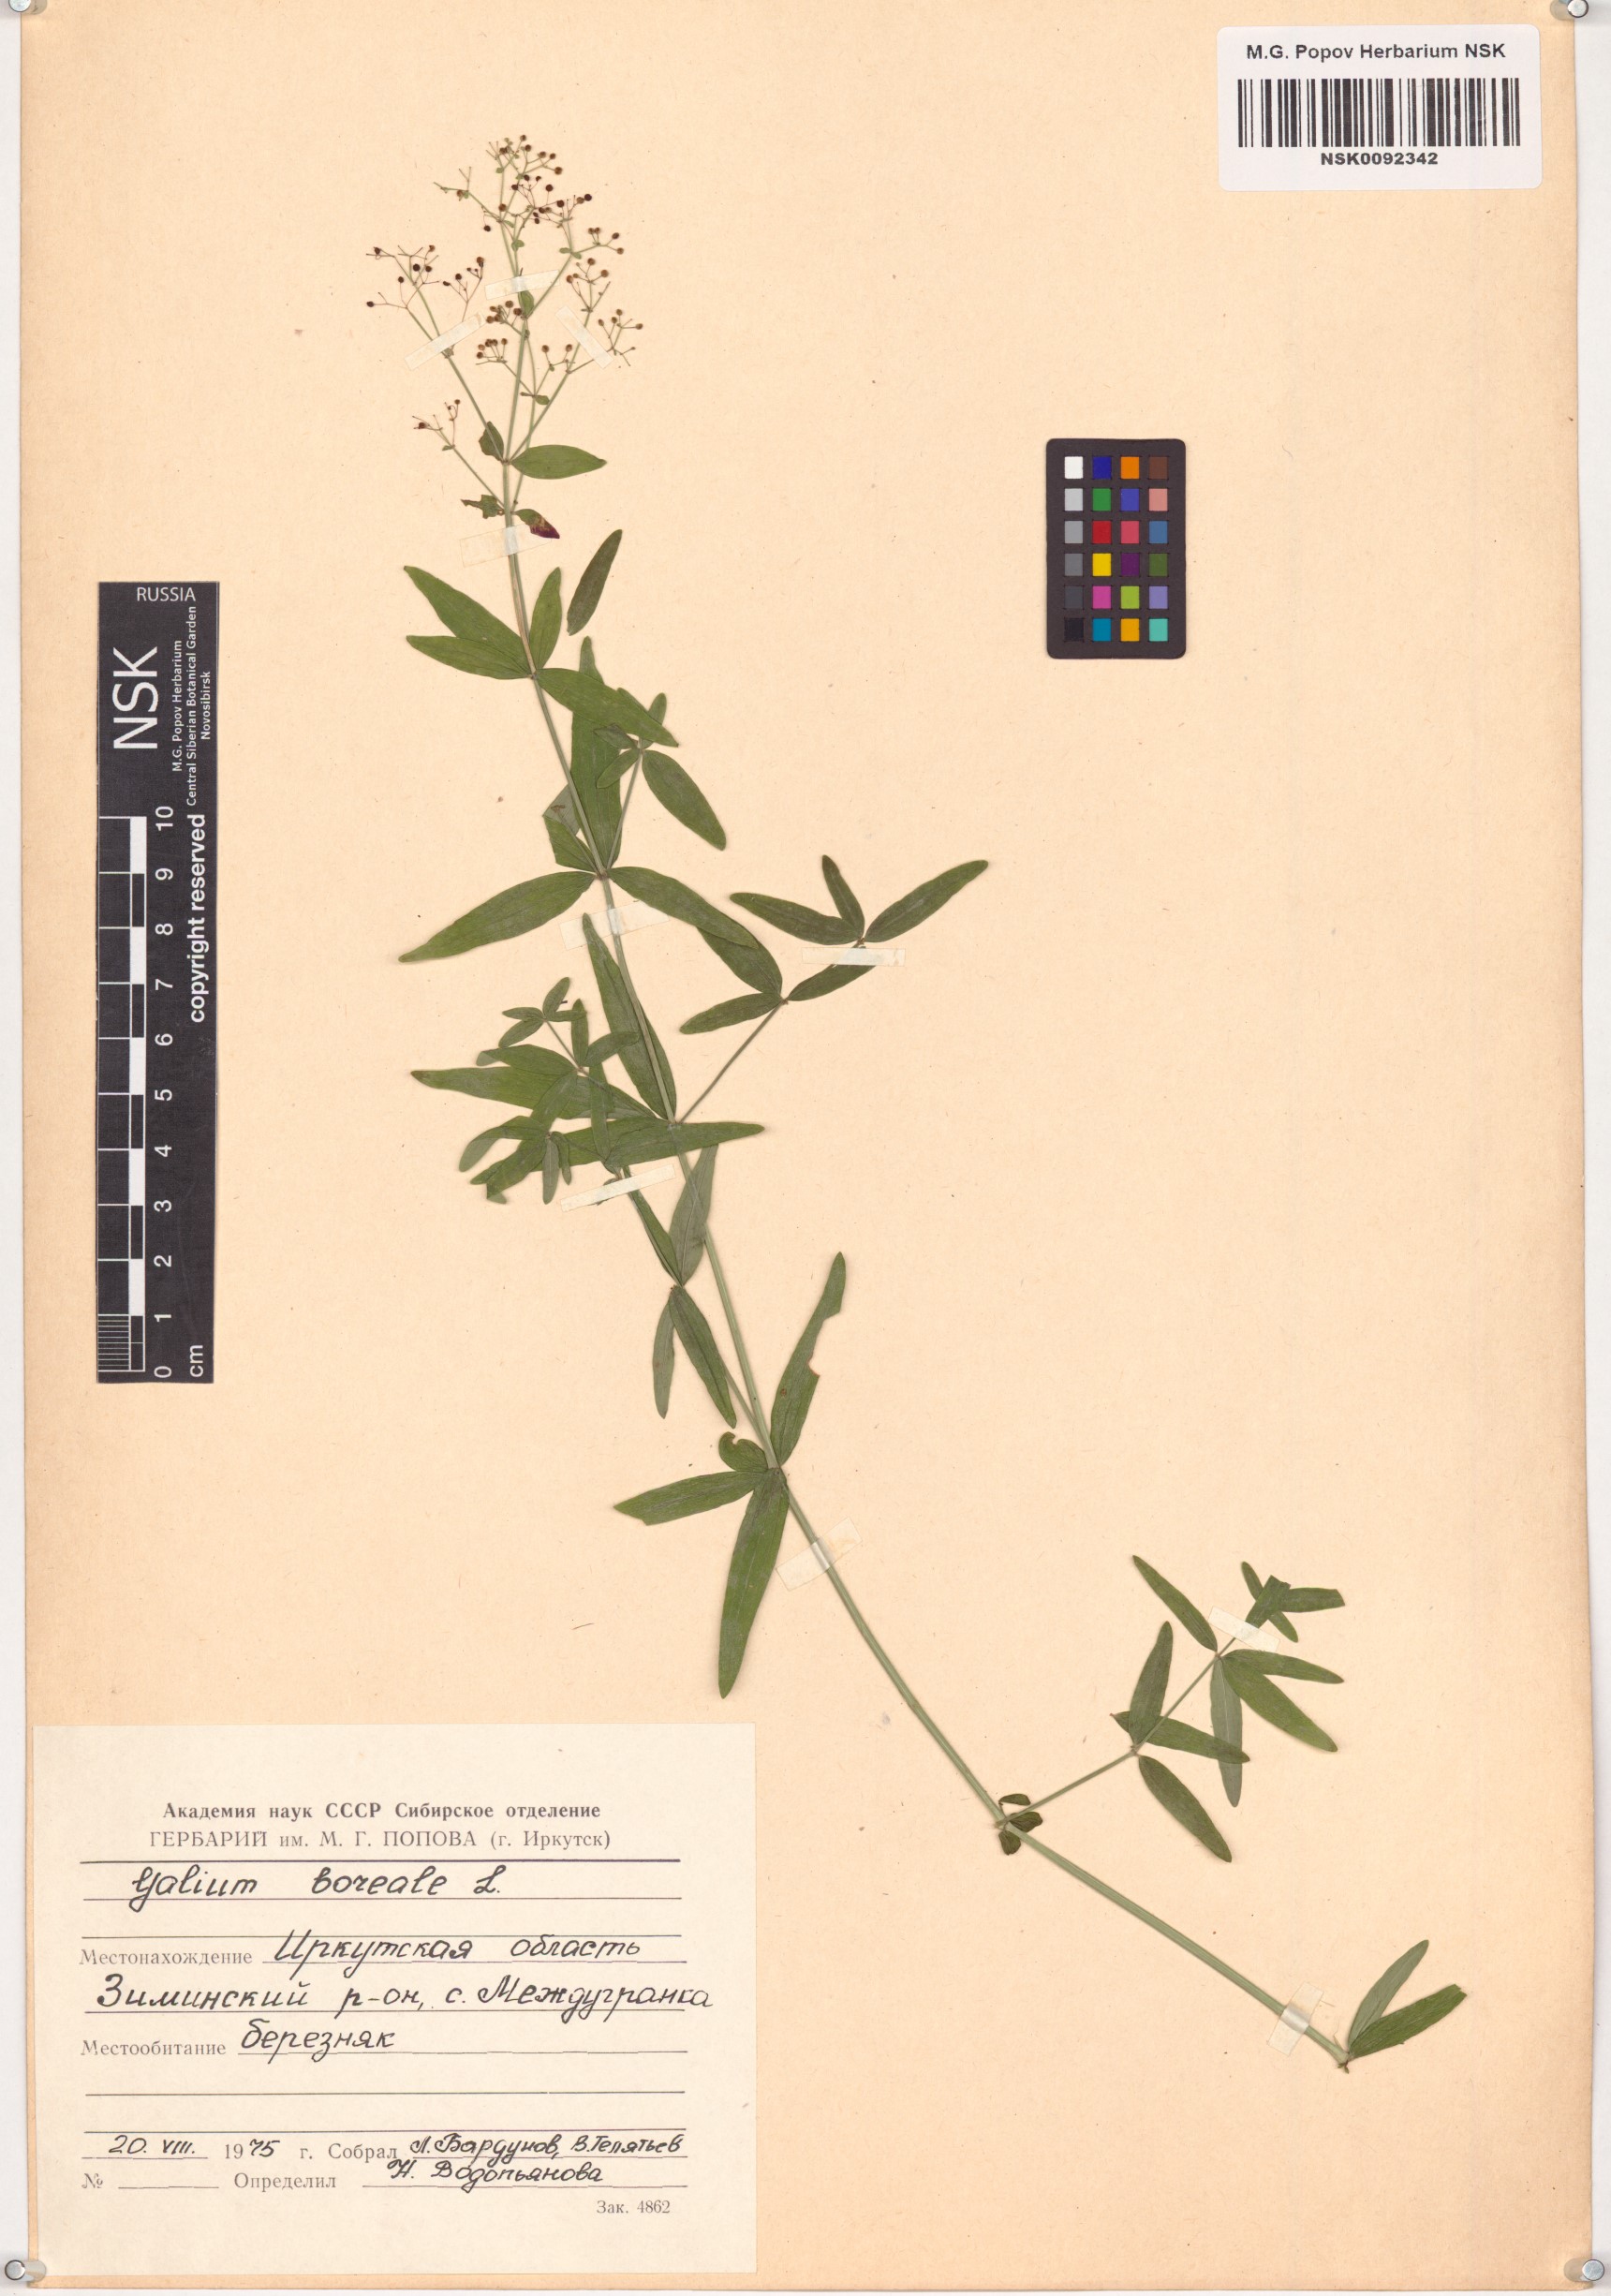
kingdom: Plantae
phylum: Tracheophyta
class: Magnoliopsida
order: Gentianales
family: Rubiaceae
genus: Galium
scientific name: Galium boreale
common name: Northern bedstraw
